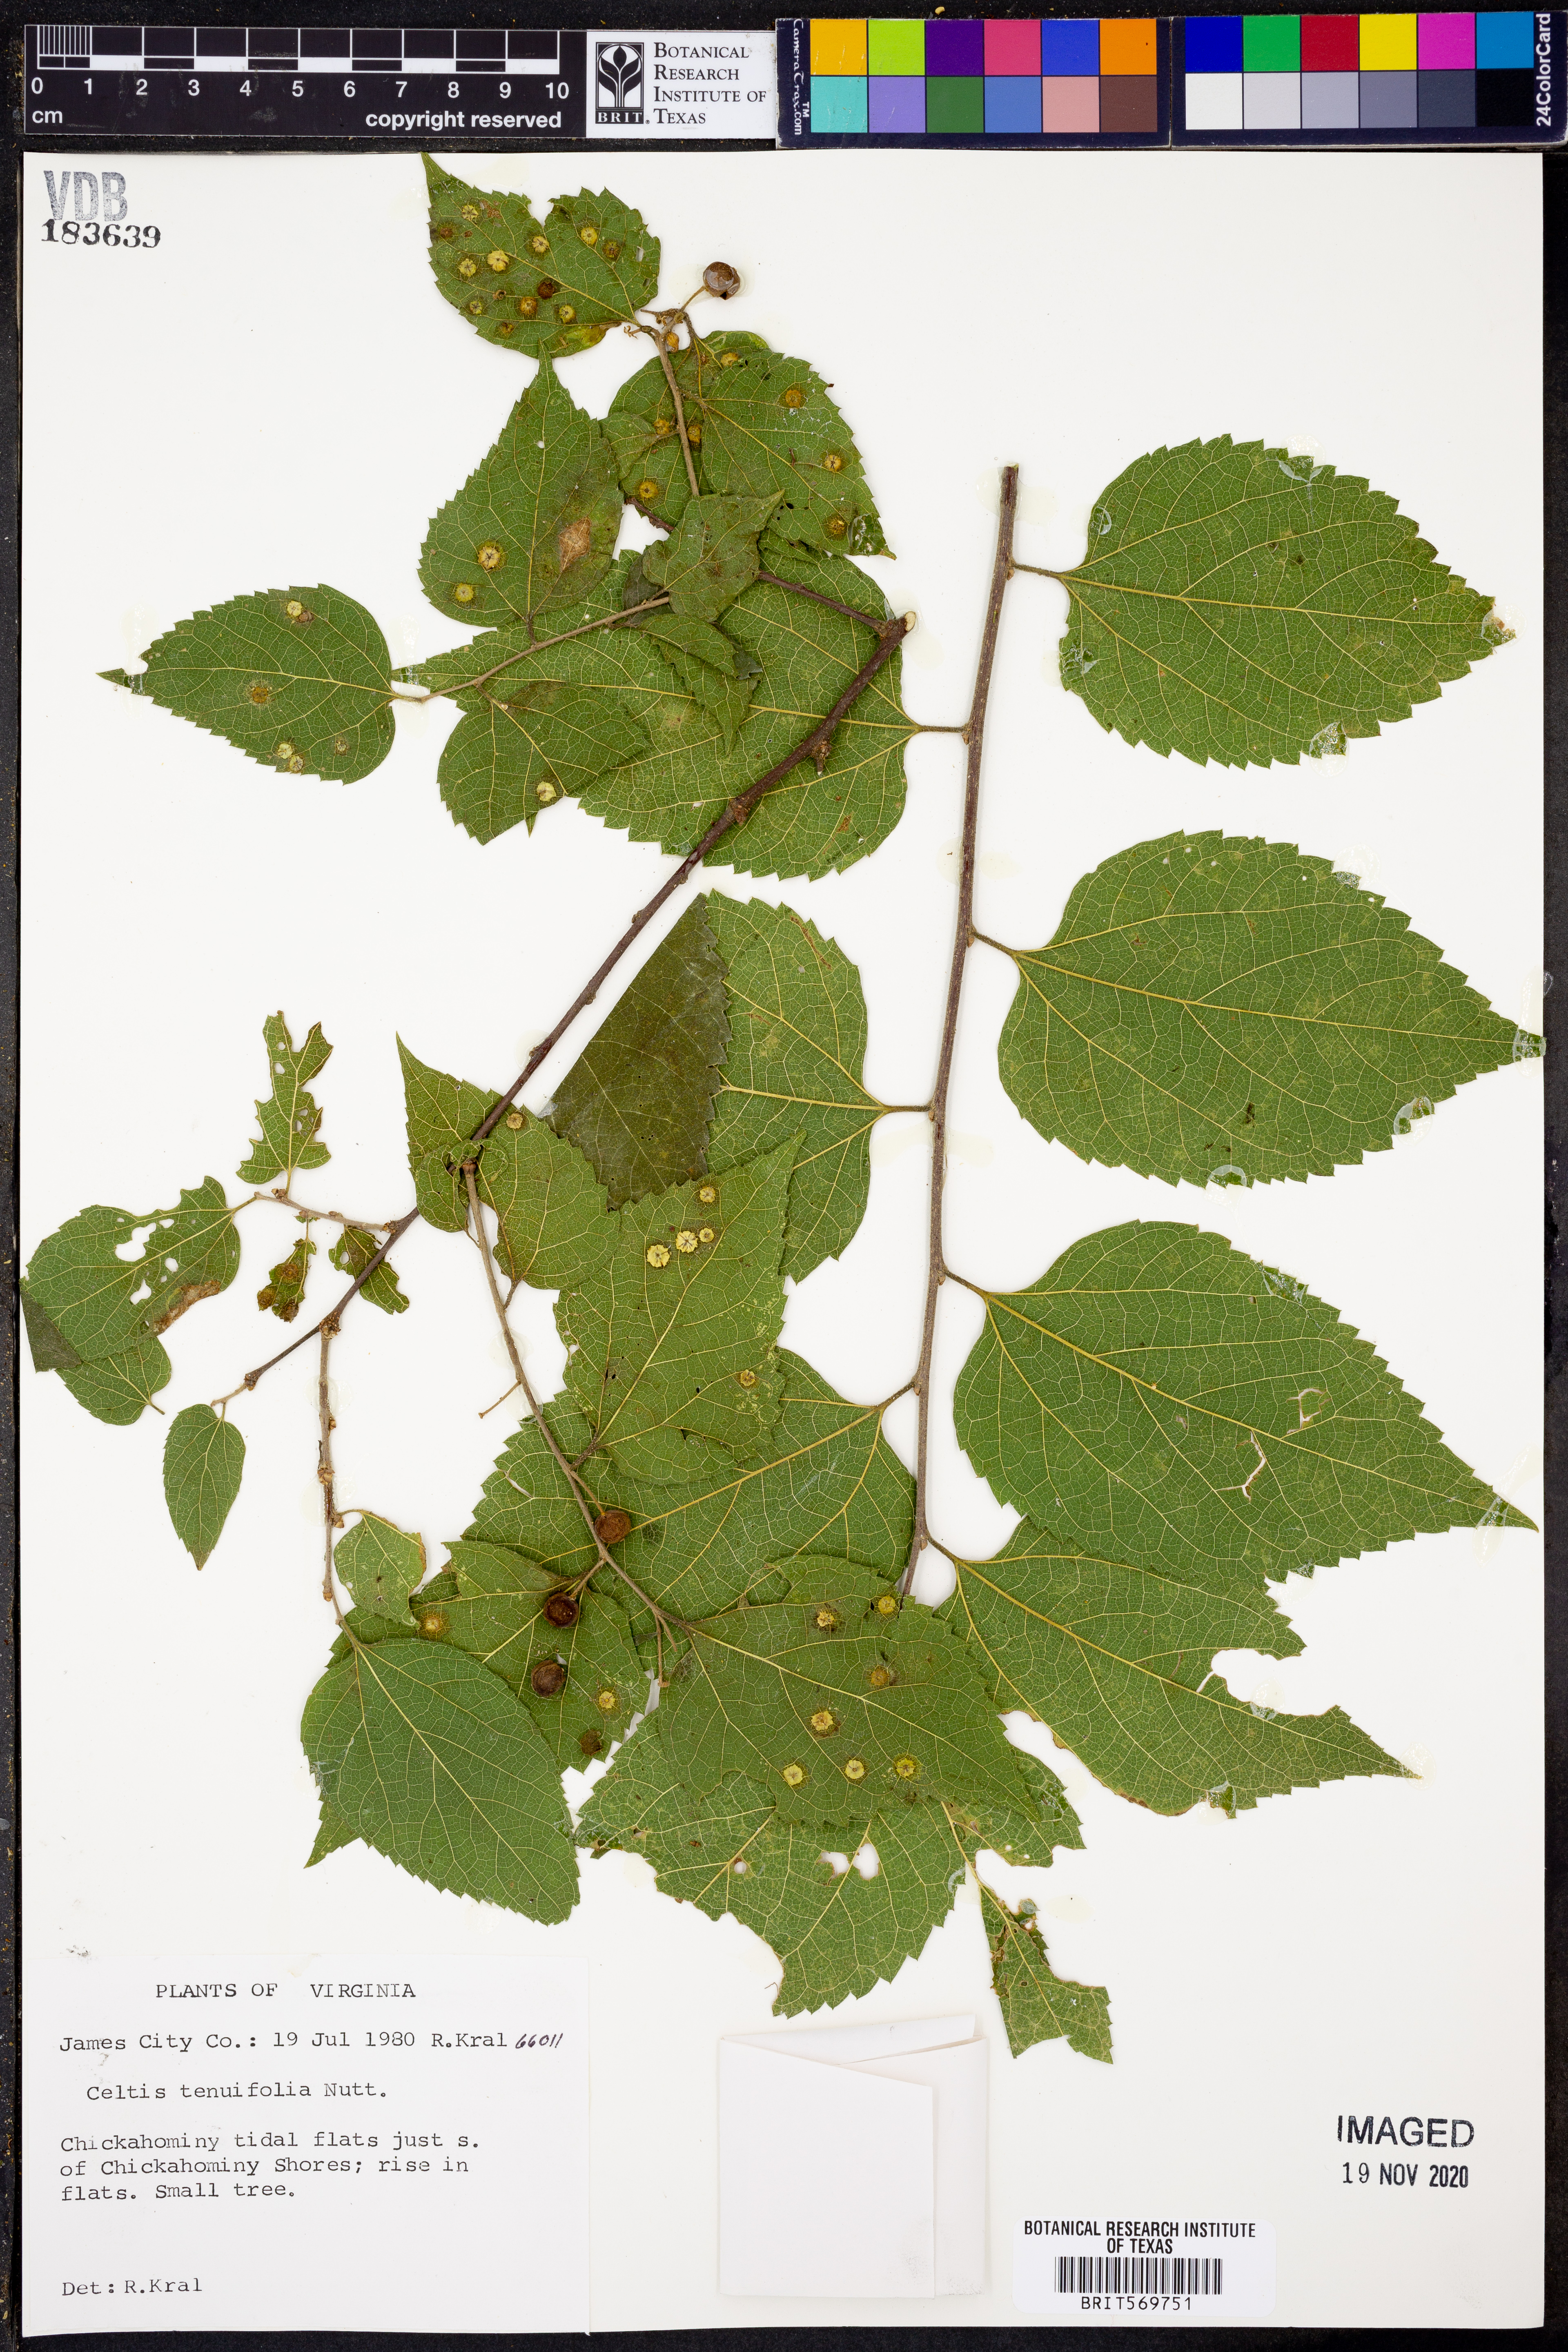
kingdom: Plantae
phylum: Tracheophyta
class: Magnoliopsida
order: Rosales
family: Cannabaceae
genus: Celtis
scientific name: Celtis tenuifolia
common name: Georgia hackberry
